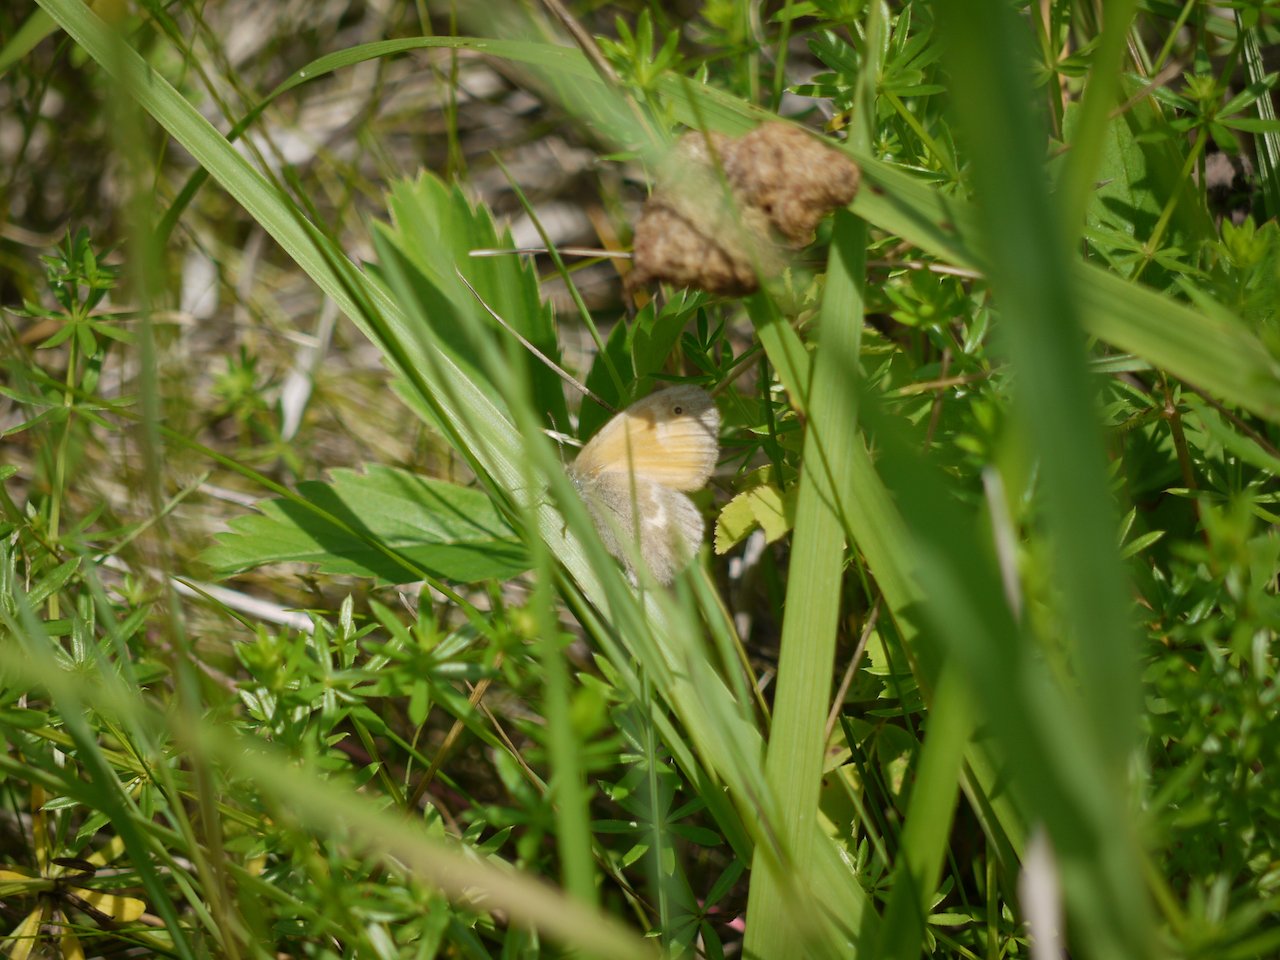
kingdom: Animalia
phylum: Arthropoda
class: Insecta
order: Lepidoptera
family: Nymphalidae
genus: Coenonympha
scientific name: Coenonympha tullia
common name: Large Heath
